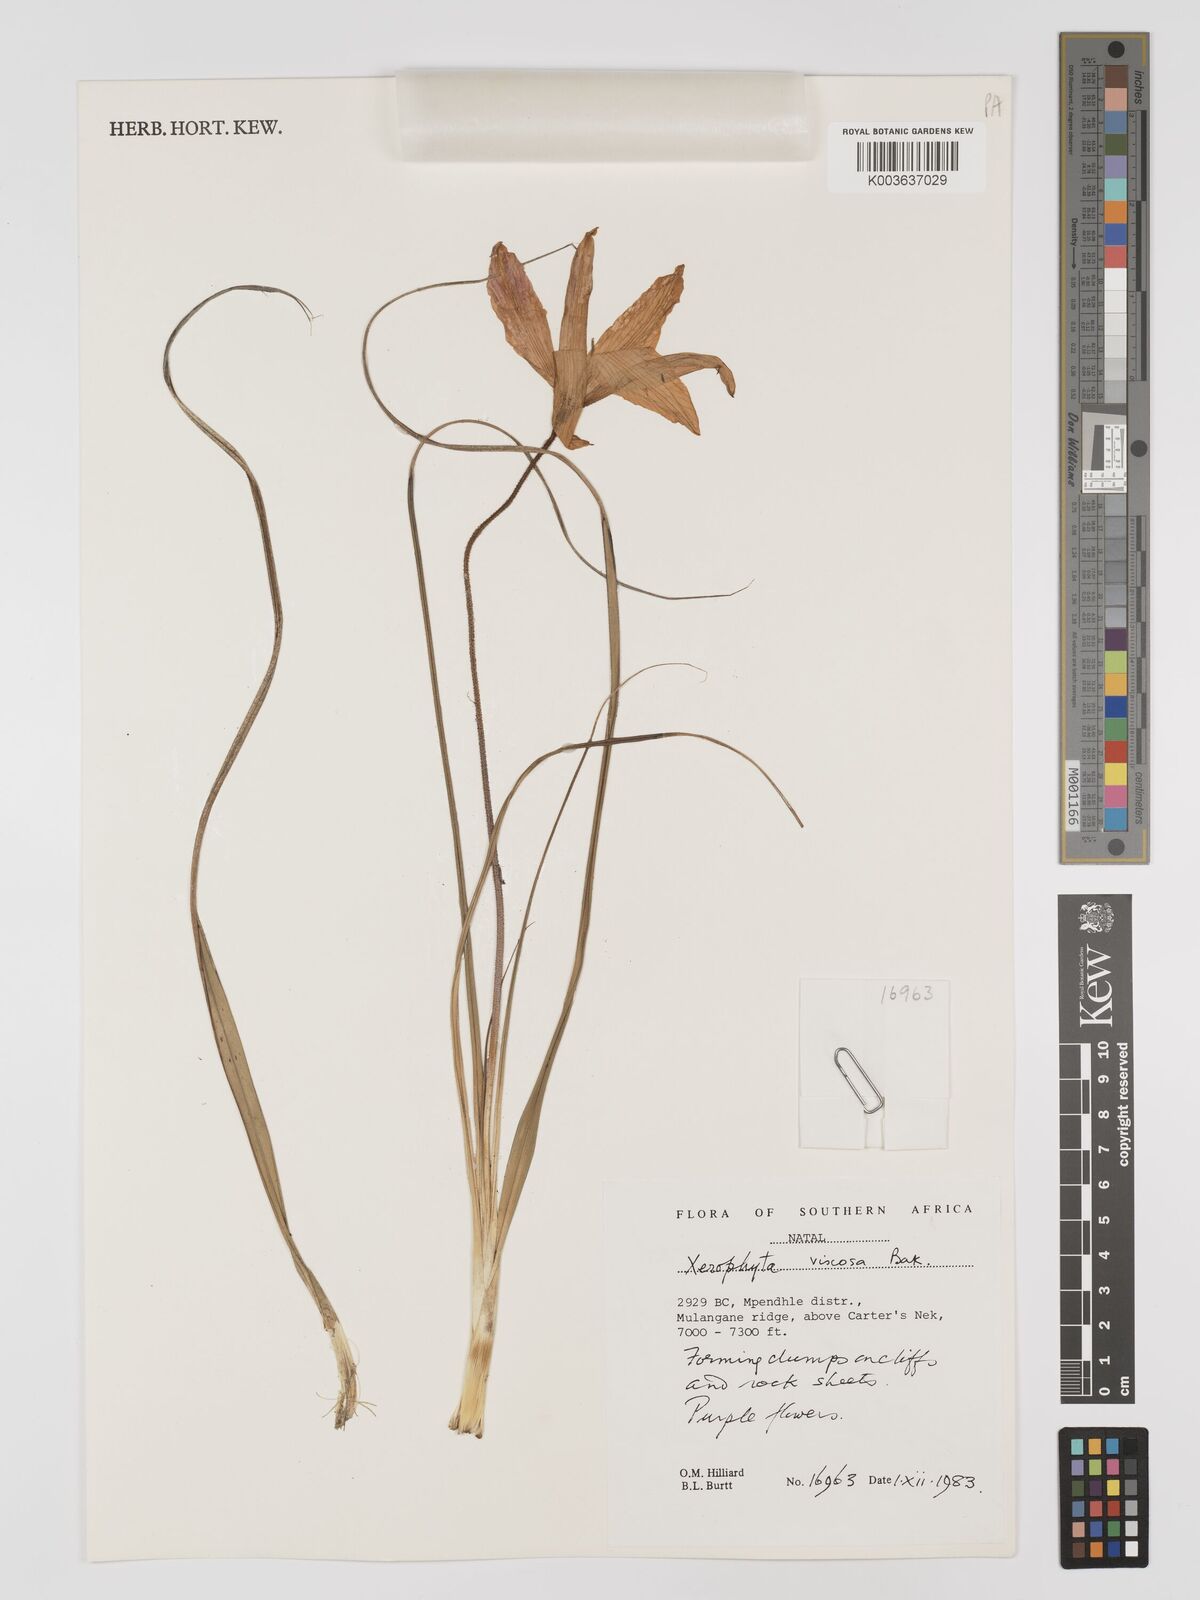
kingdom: Plantae
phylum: Tracheophyta
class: Liliopsida
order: Pandanales
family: Velloziaceae
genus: Xerophyta
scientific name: Xerophyta viscosa
